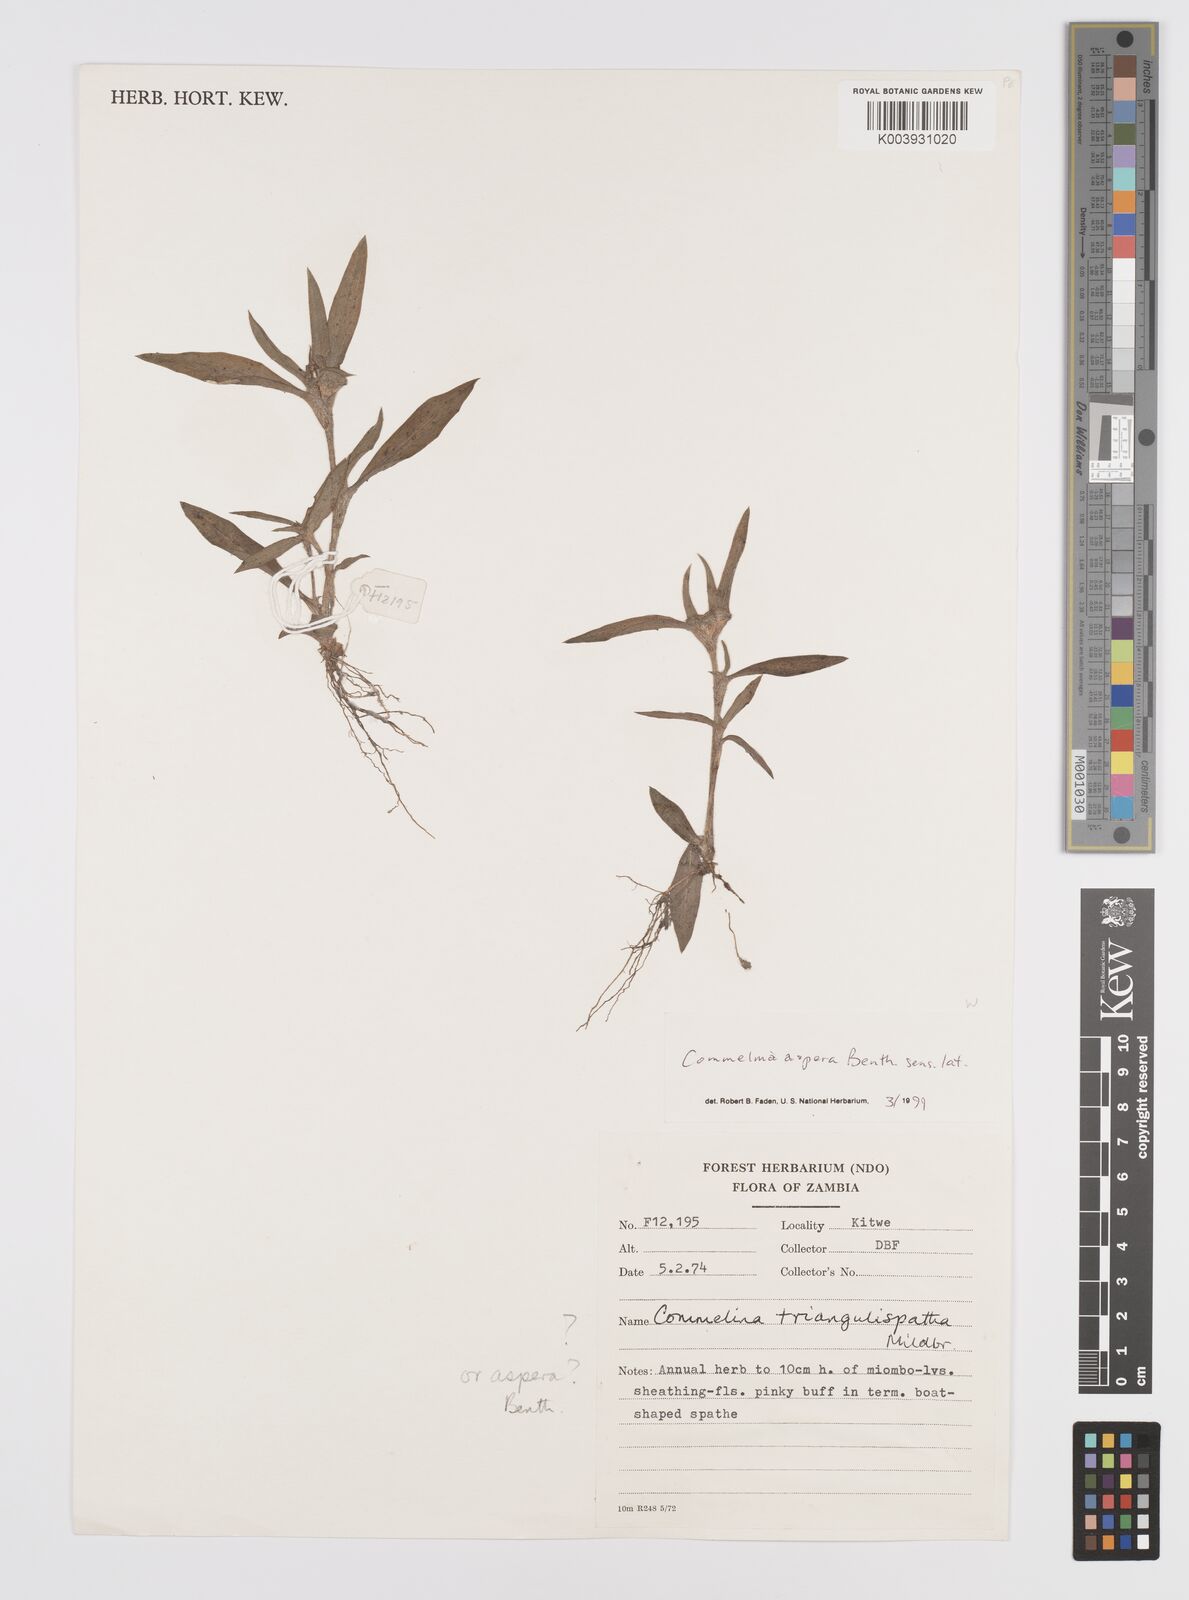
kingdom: Plantae
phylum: Tracheophyta
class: Liliopsida
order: Commelinales
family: Commelinaceae
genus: Commelina
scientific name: Commelina aspera
